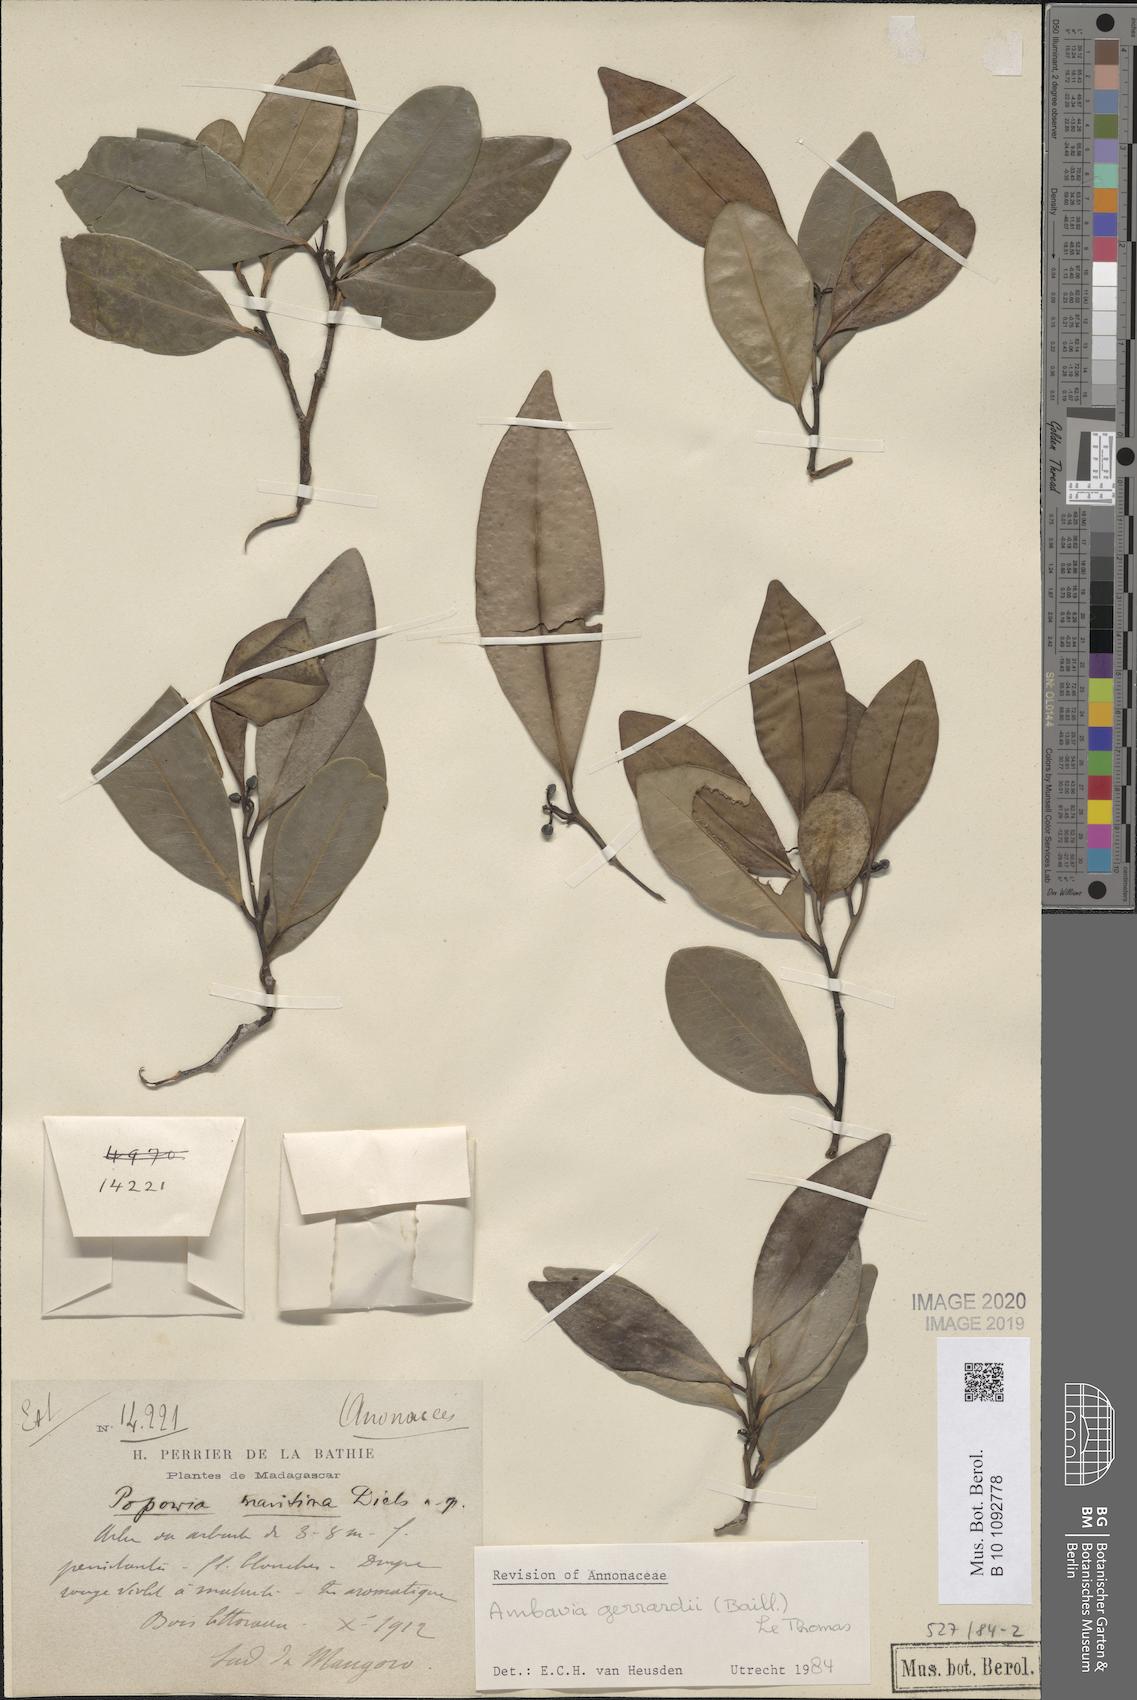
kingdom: Plantae
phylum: Tracheophyta
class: Magnoliopsida
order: Magnoliales
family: Annonaceae
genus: Ambavia
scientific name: Ambavia gerrardii
